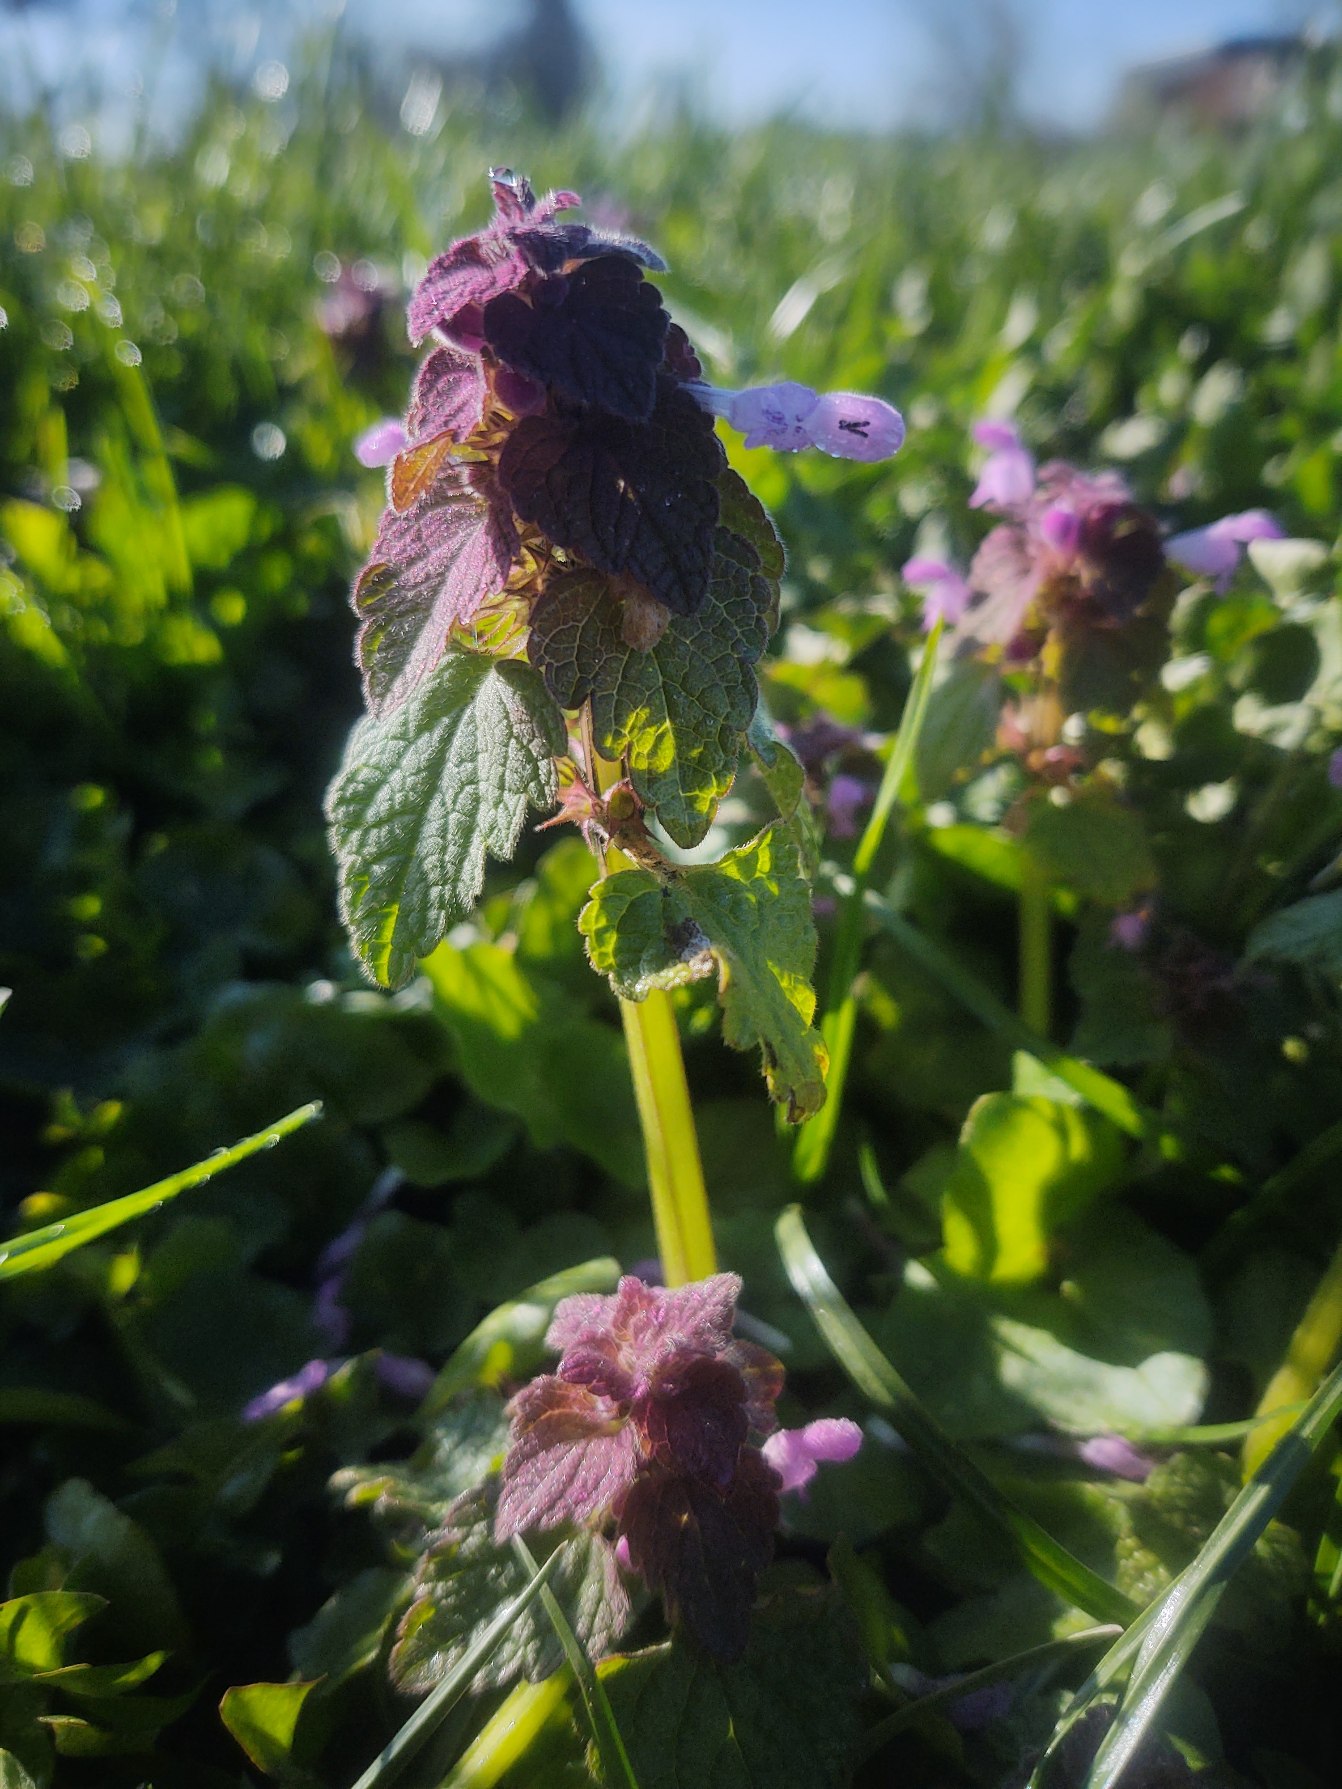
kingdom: Plantae
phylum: Tracheophyta
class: Magnoliopsida
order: Lamiales
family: Lamiaceae
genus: Lamium
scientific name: Lamium purpureum
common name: Rød tvetand
